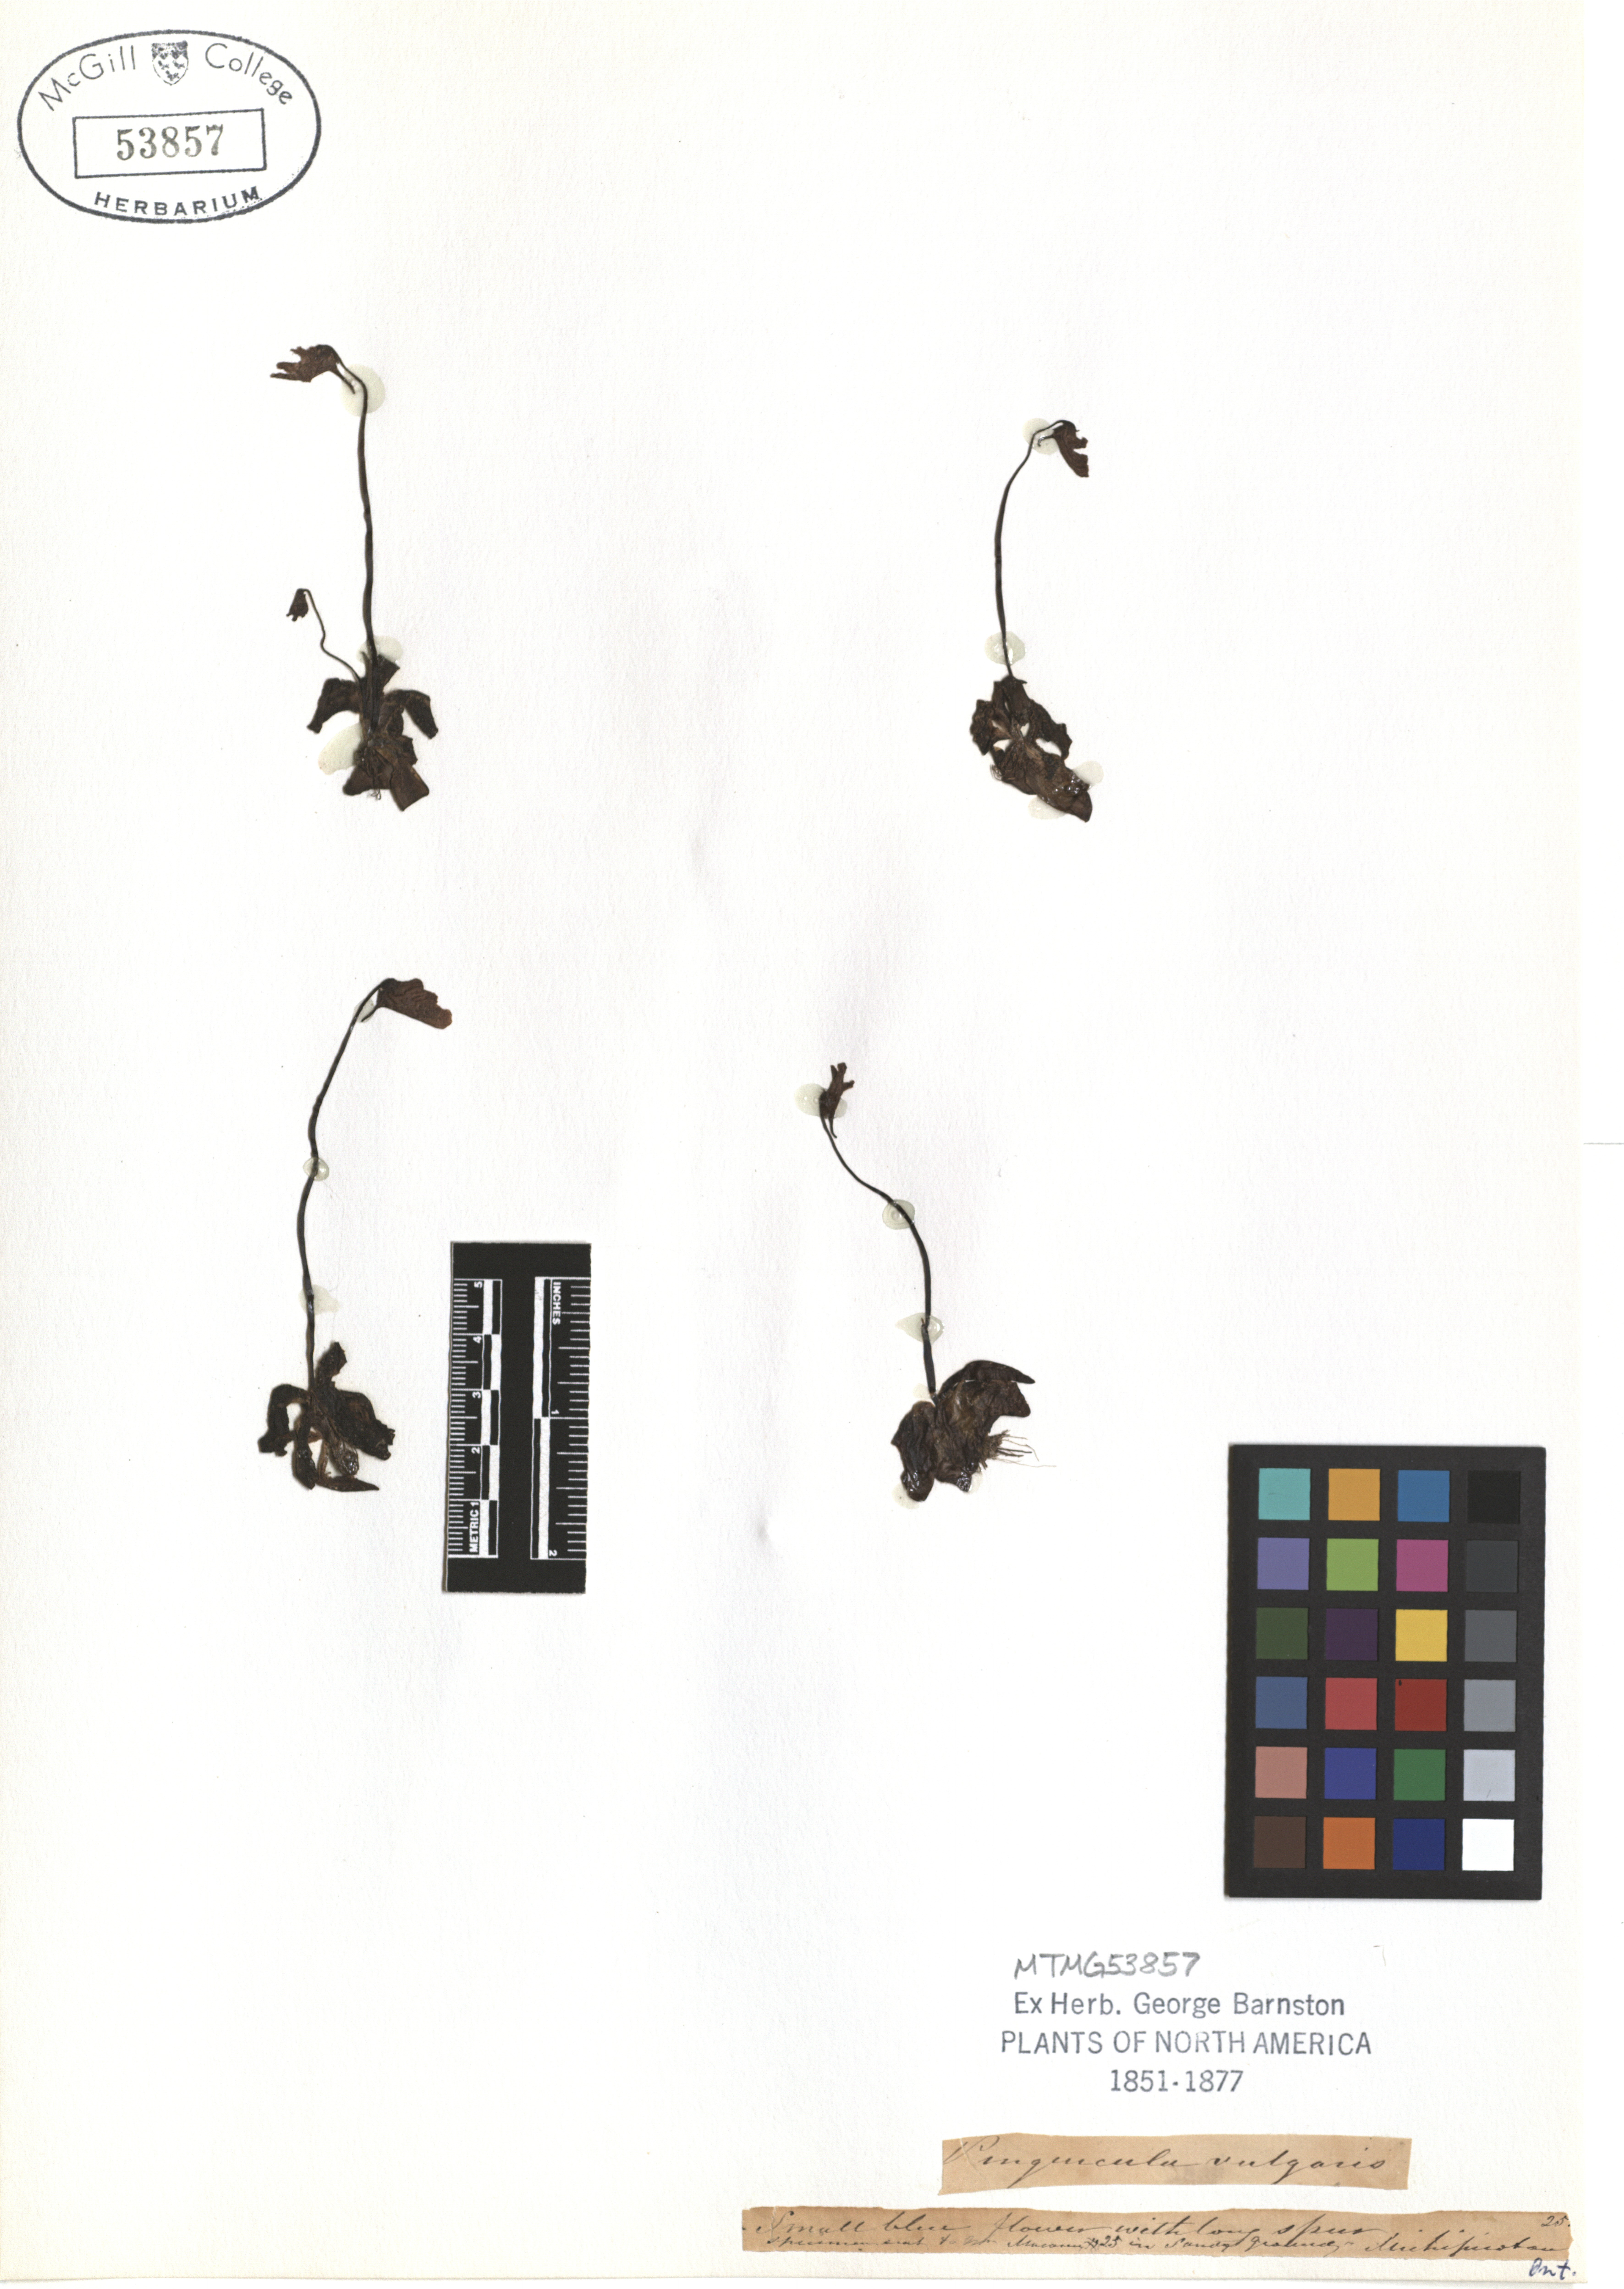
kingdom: Plantae
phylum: Tracheophyta
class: Magnoliopsida
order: Lamiales
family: Lentibulariaceae
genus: Pinguicula
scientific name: Pinguicula vulgaris
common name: Common butterwort
